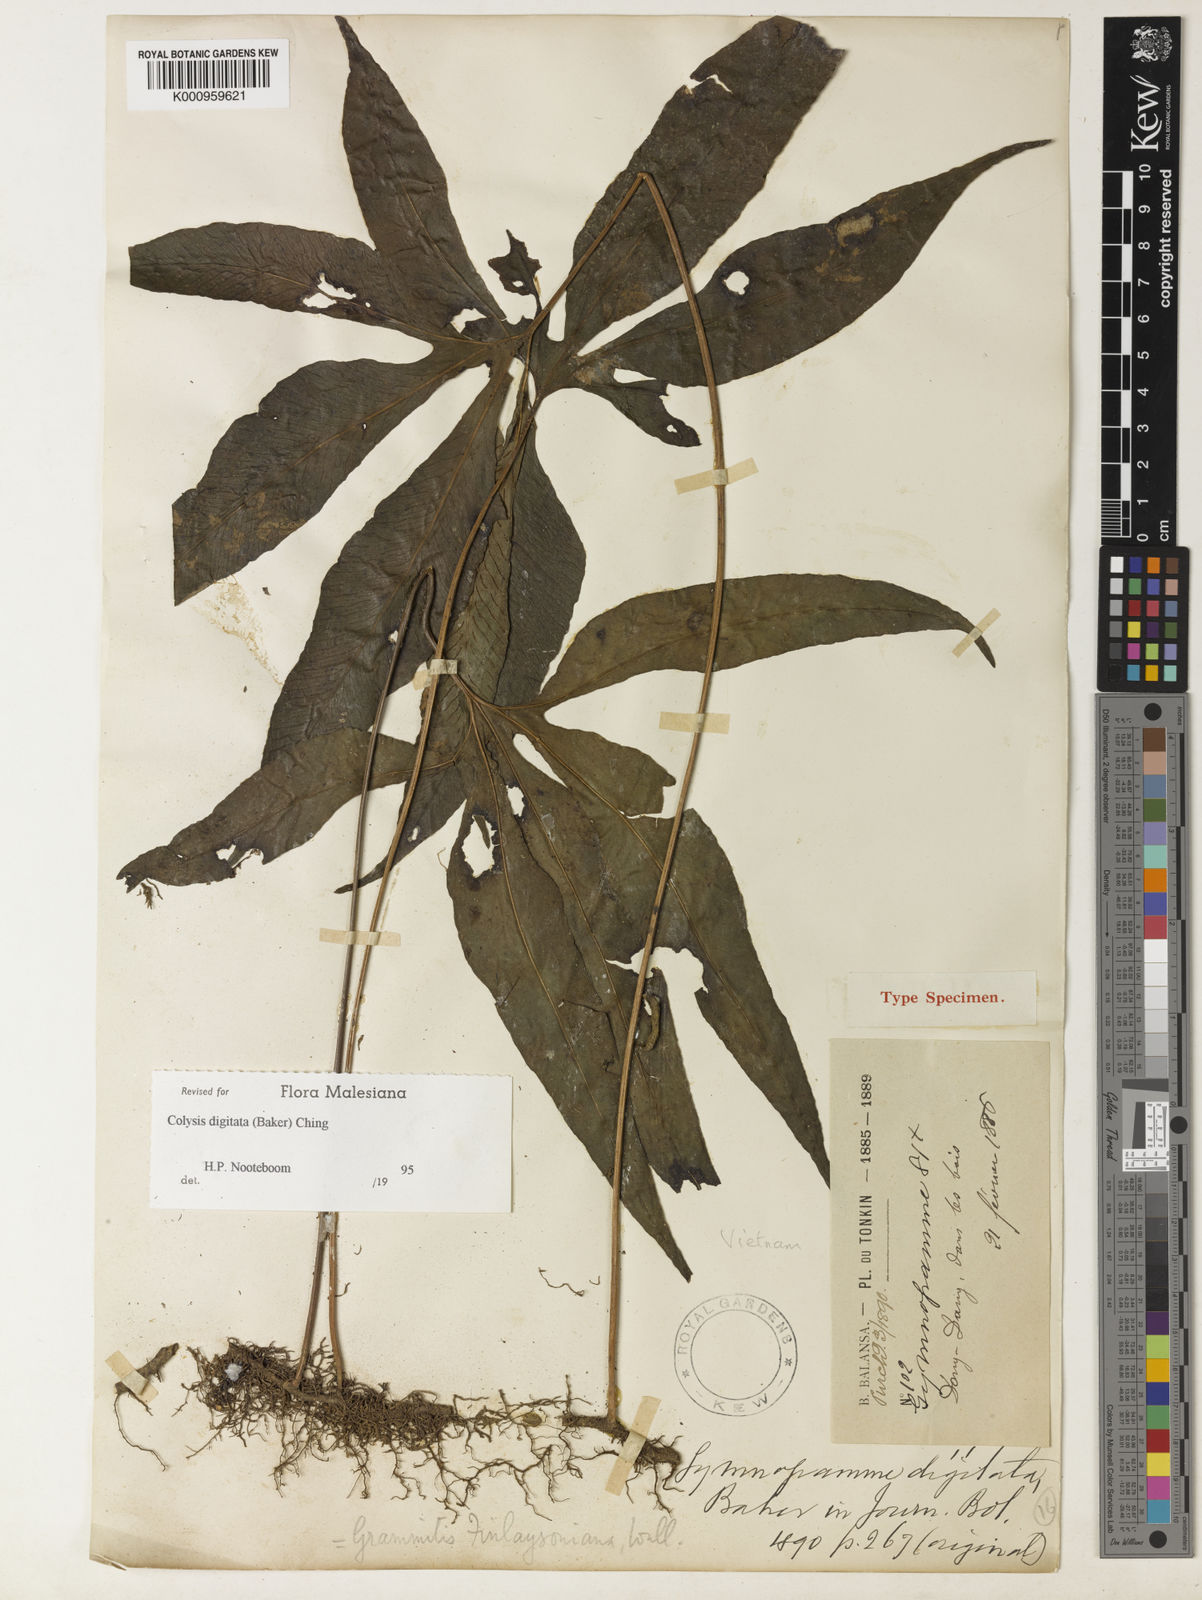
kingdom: Plantae
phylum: Tracheophyta
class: Polypodiopsida
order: Polypodiales
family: Polypodiaceae
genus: Leptochilus
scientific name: Leptochilus digitatus
